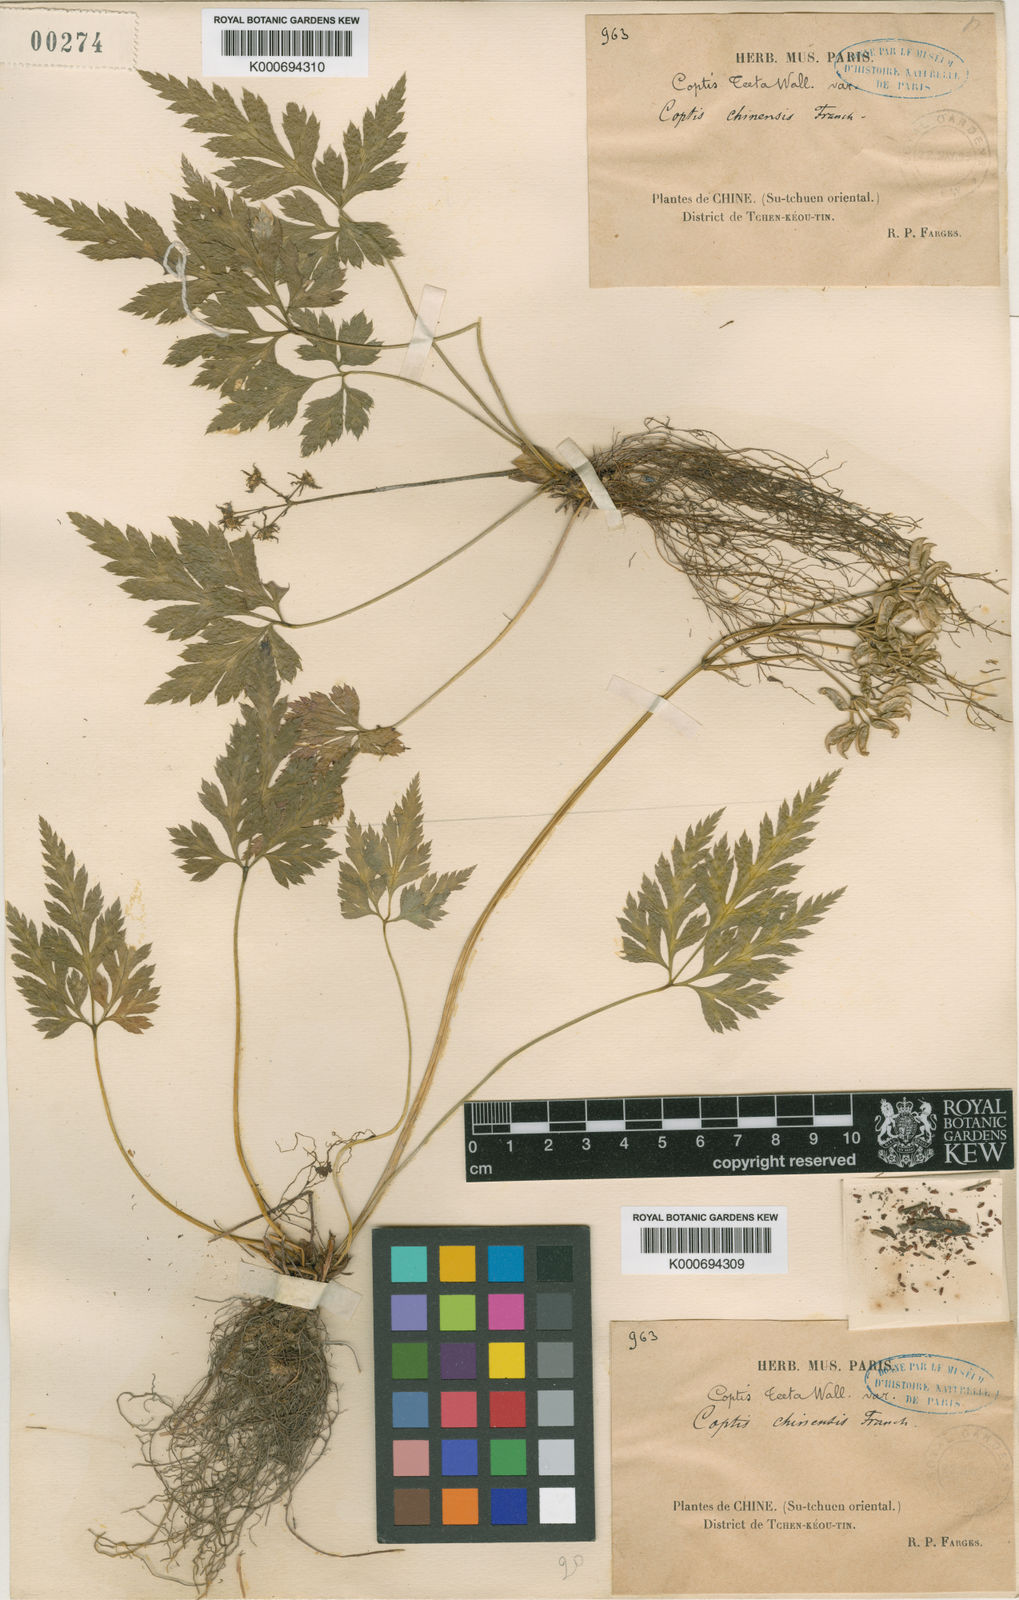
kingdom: Plantae
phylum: Tracheophyta
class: Magnoliopsida
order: Ranunculales
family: Ranunculaceae
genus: Coptis
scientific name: Coptis chinensis
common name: Chinese goldthread
